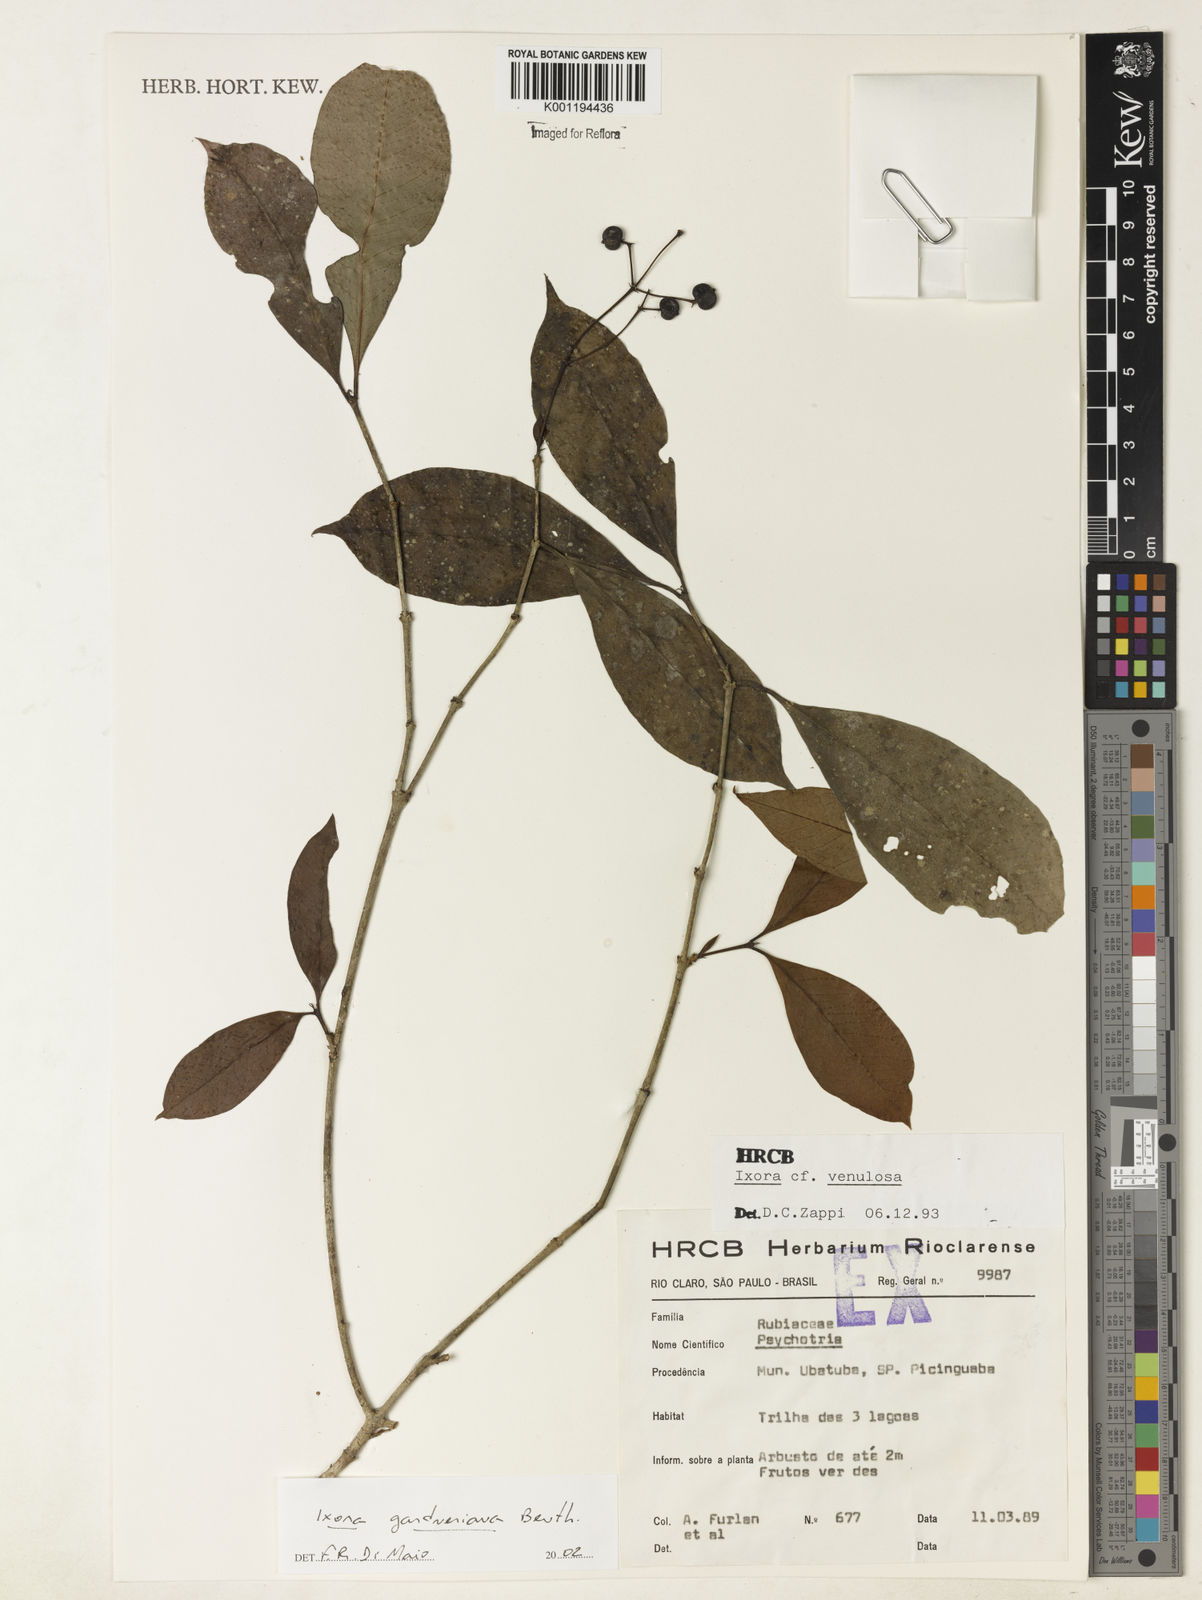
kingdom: Plantae
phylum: Tracheophyta
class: Magnoliopsida
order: Gentianales
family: Rubiaceae
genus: Ixora
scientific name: Ixora gardneriana
